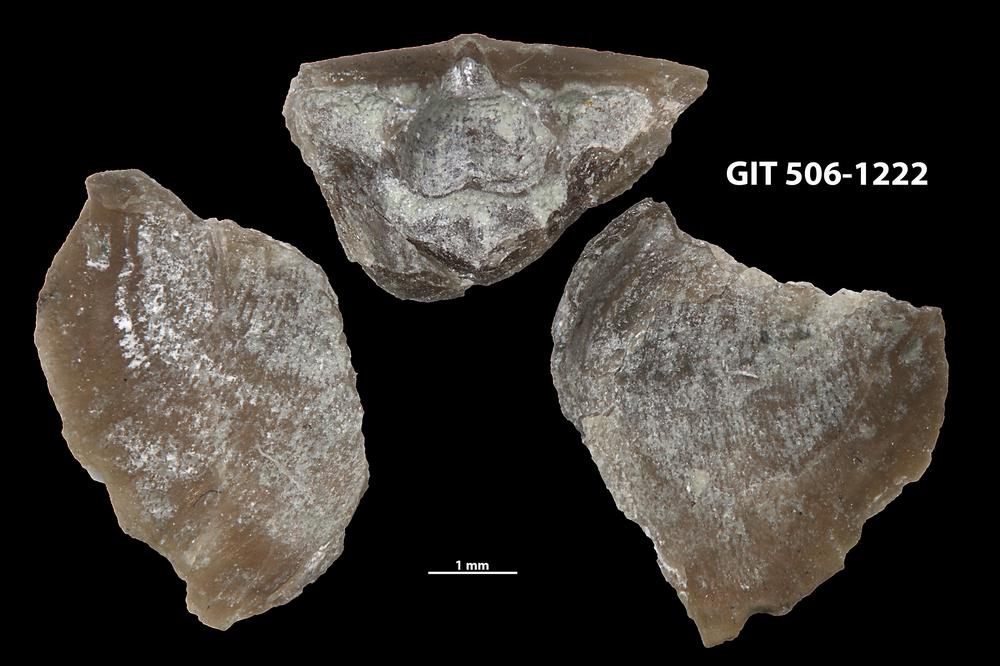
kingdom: Animalia
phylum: Brachiopoda
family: Leptellinidae
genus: Leangella
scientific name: Leangella Plectambonites scissa
